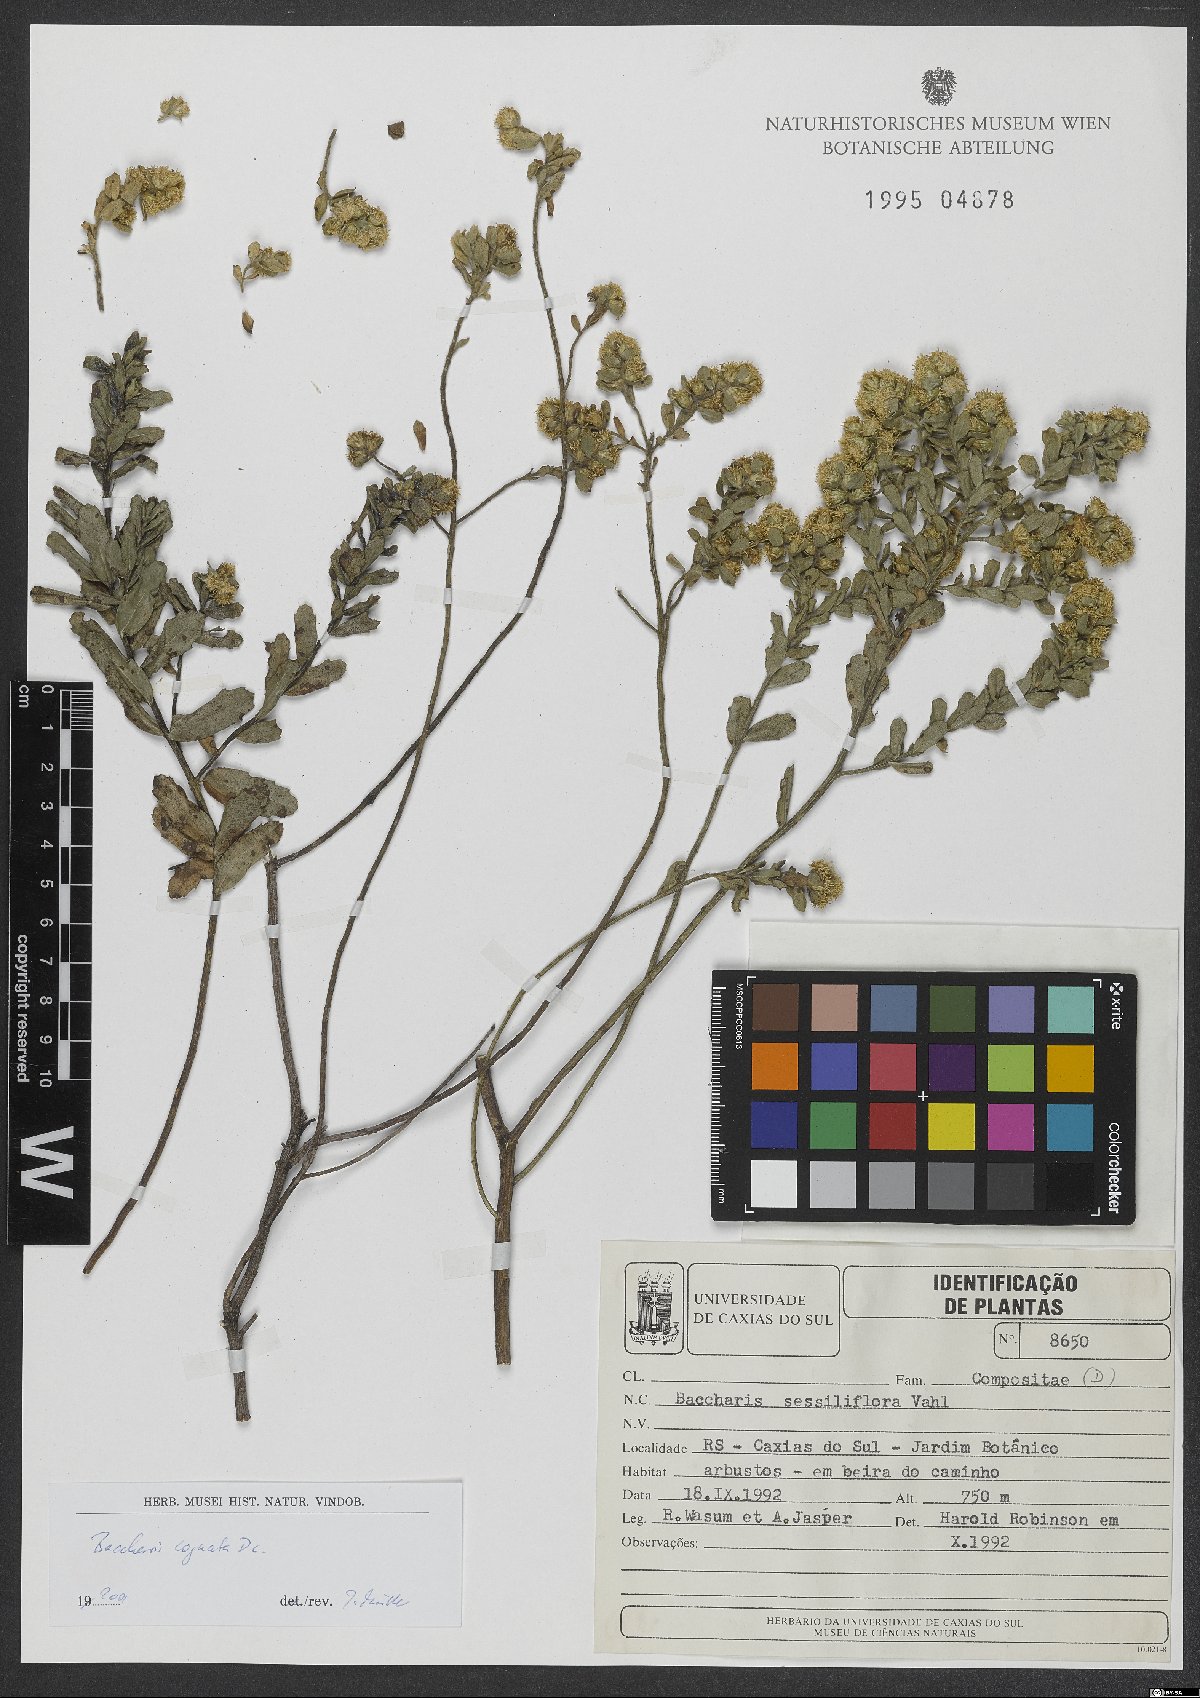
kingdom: Plantae
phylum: Tracheophyta
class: Magnoliopsida
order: Asterales
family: Asteraceae
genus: Baccharis
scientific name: Baccharis cognata
